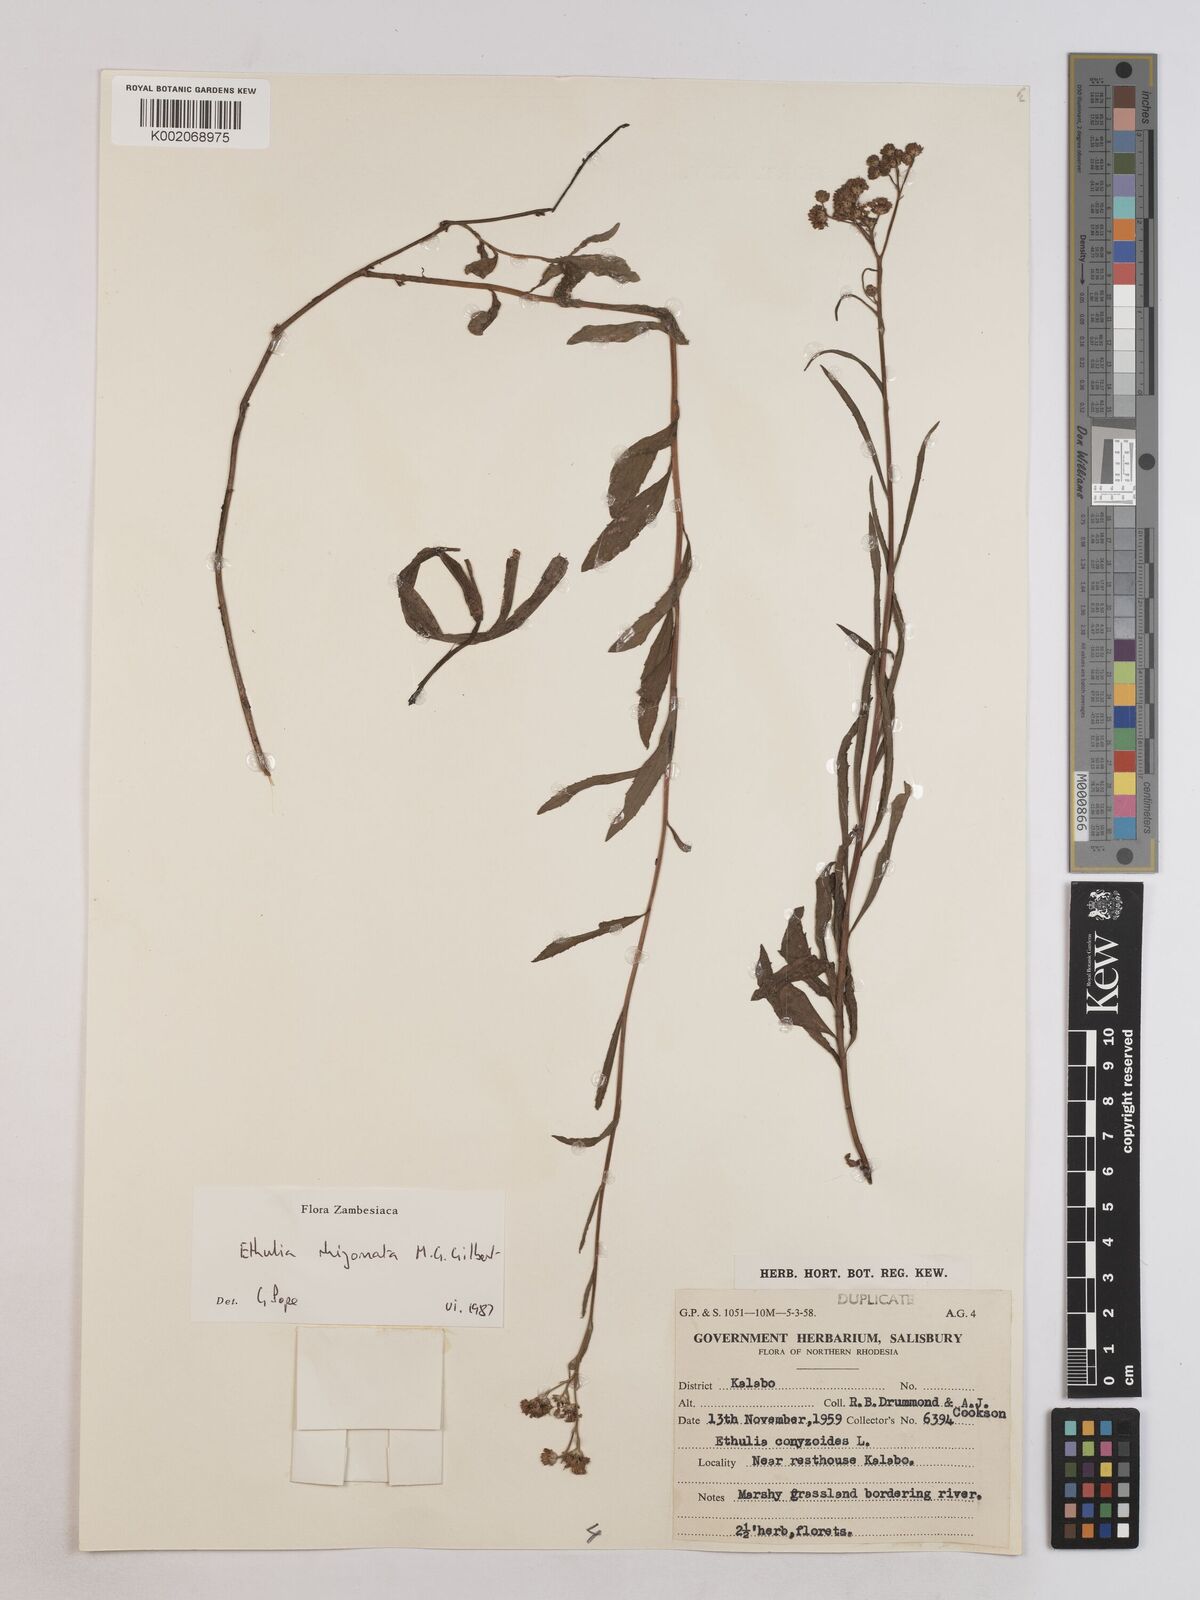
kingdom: Plantae
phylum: Tracheophyta
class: Magnoliopsida
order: Asterales
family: Asteraceae
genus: Ethulia
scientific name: Ethulia rhizomata
